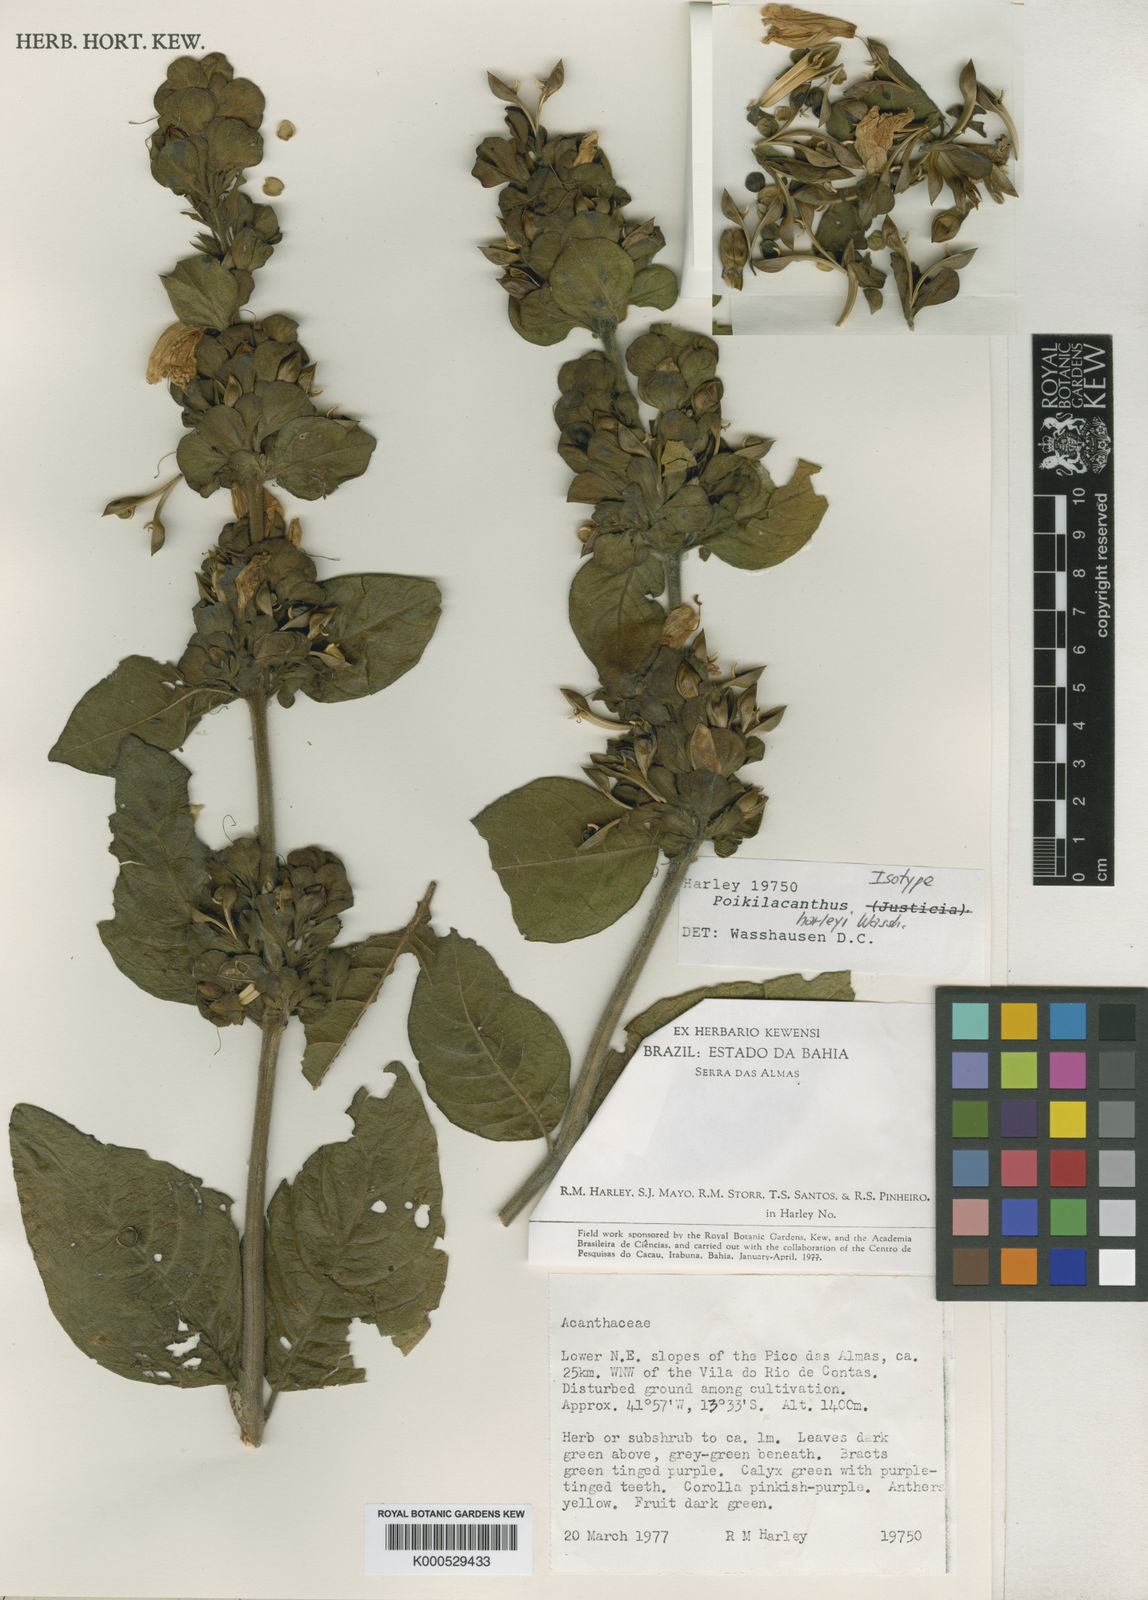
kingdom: Plantae
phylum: Tracheophyta
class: Magnoliopsida
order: Lamiales
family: Acanthaceae
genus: Poikilacanthus
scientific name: Poikilacanthus bahiensis
